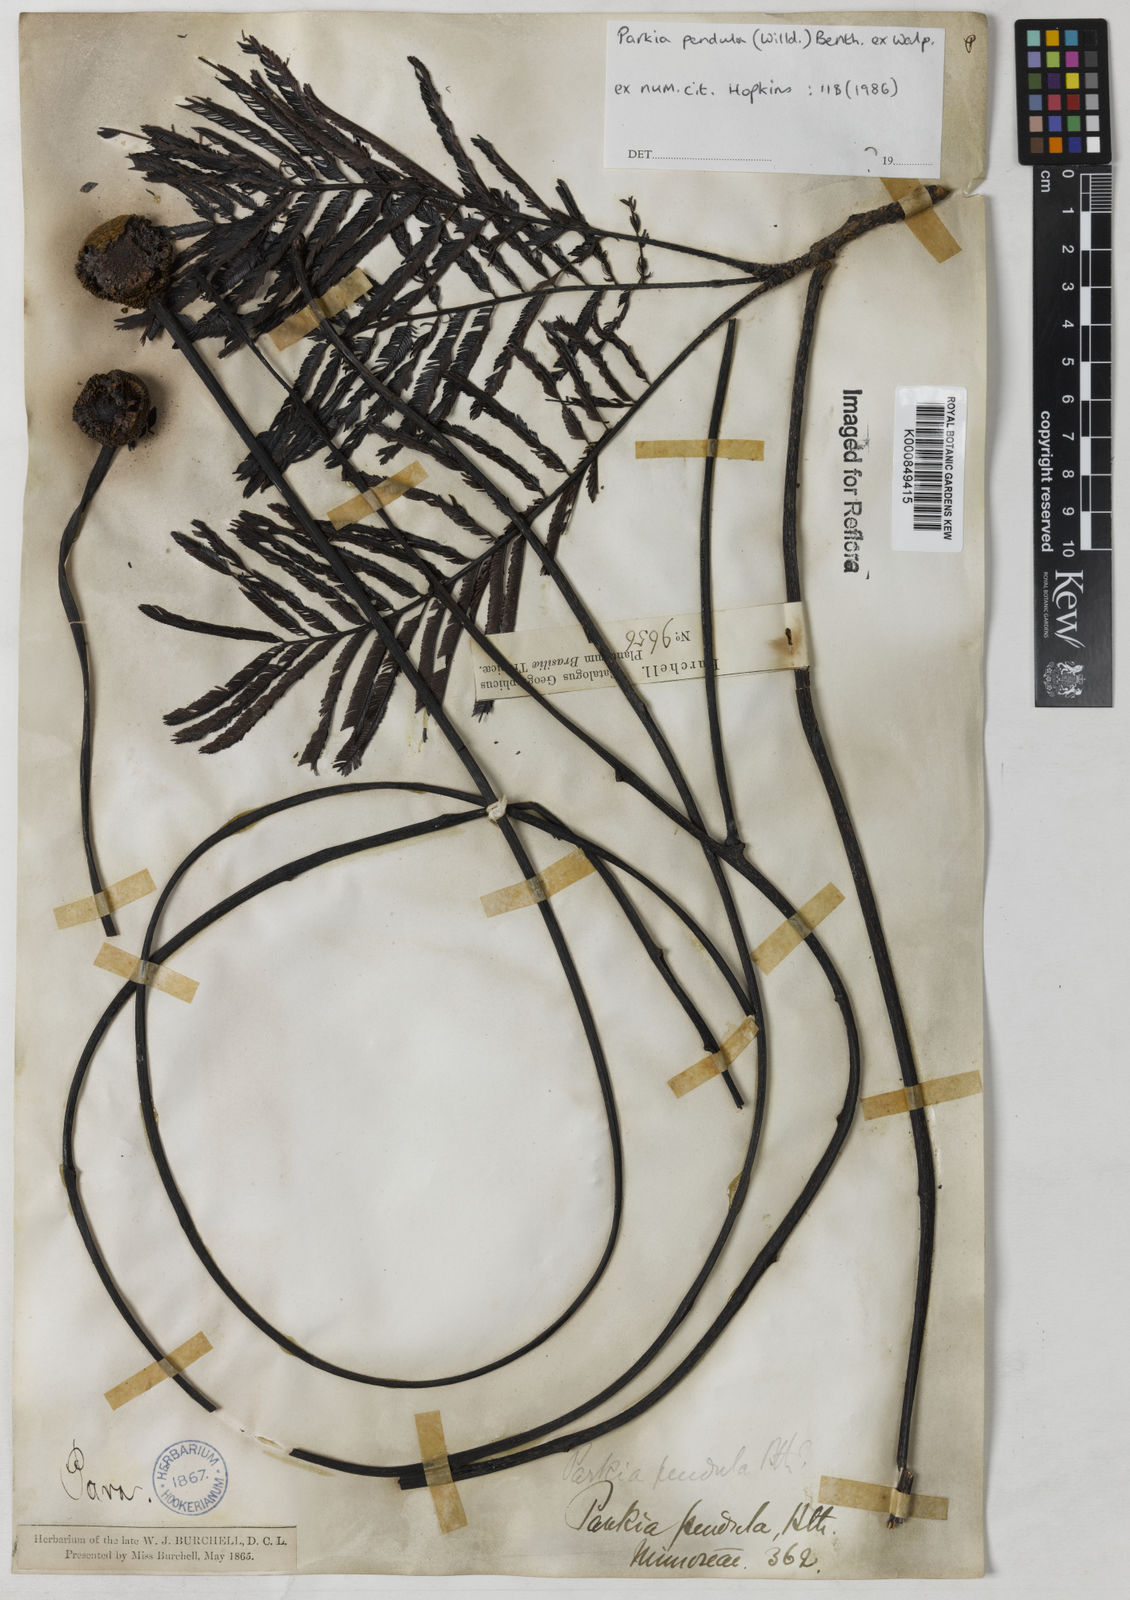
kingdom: Plantae
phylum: Tracheophyta
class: Magnoliopsida
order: Fabales
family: Fabaceae
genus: Parkia
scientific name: Parkia pendula
